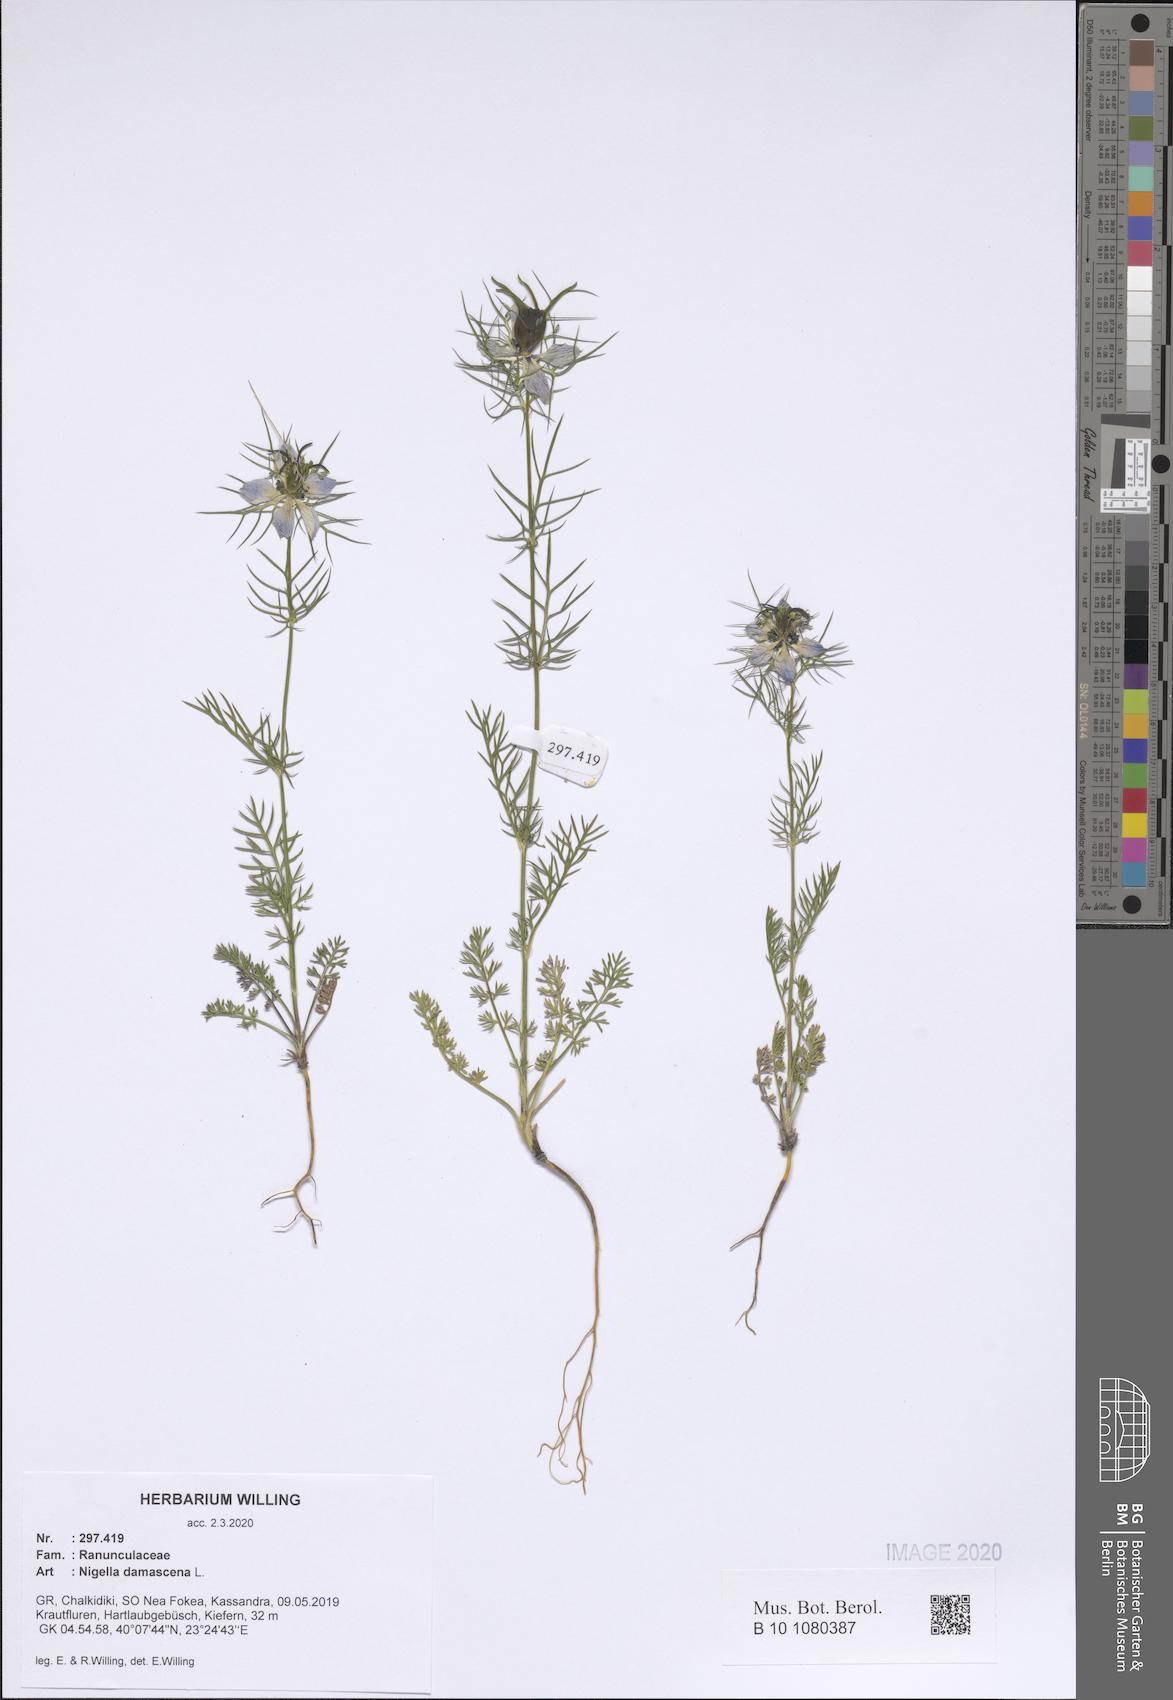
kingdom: Plantae
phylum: Tracheophyta
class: Magnoliopsida
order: Ranunculales
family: Ranunculaceae
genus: Nigella
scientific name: Nigella damascena
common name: Love-in-a-mist
